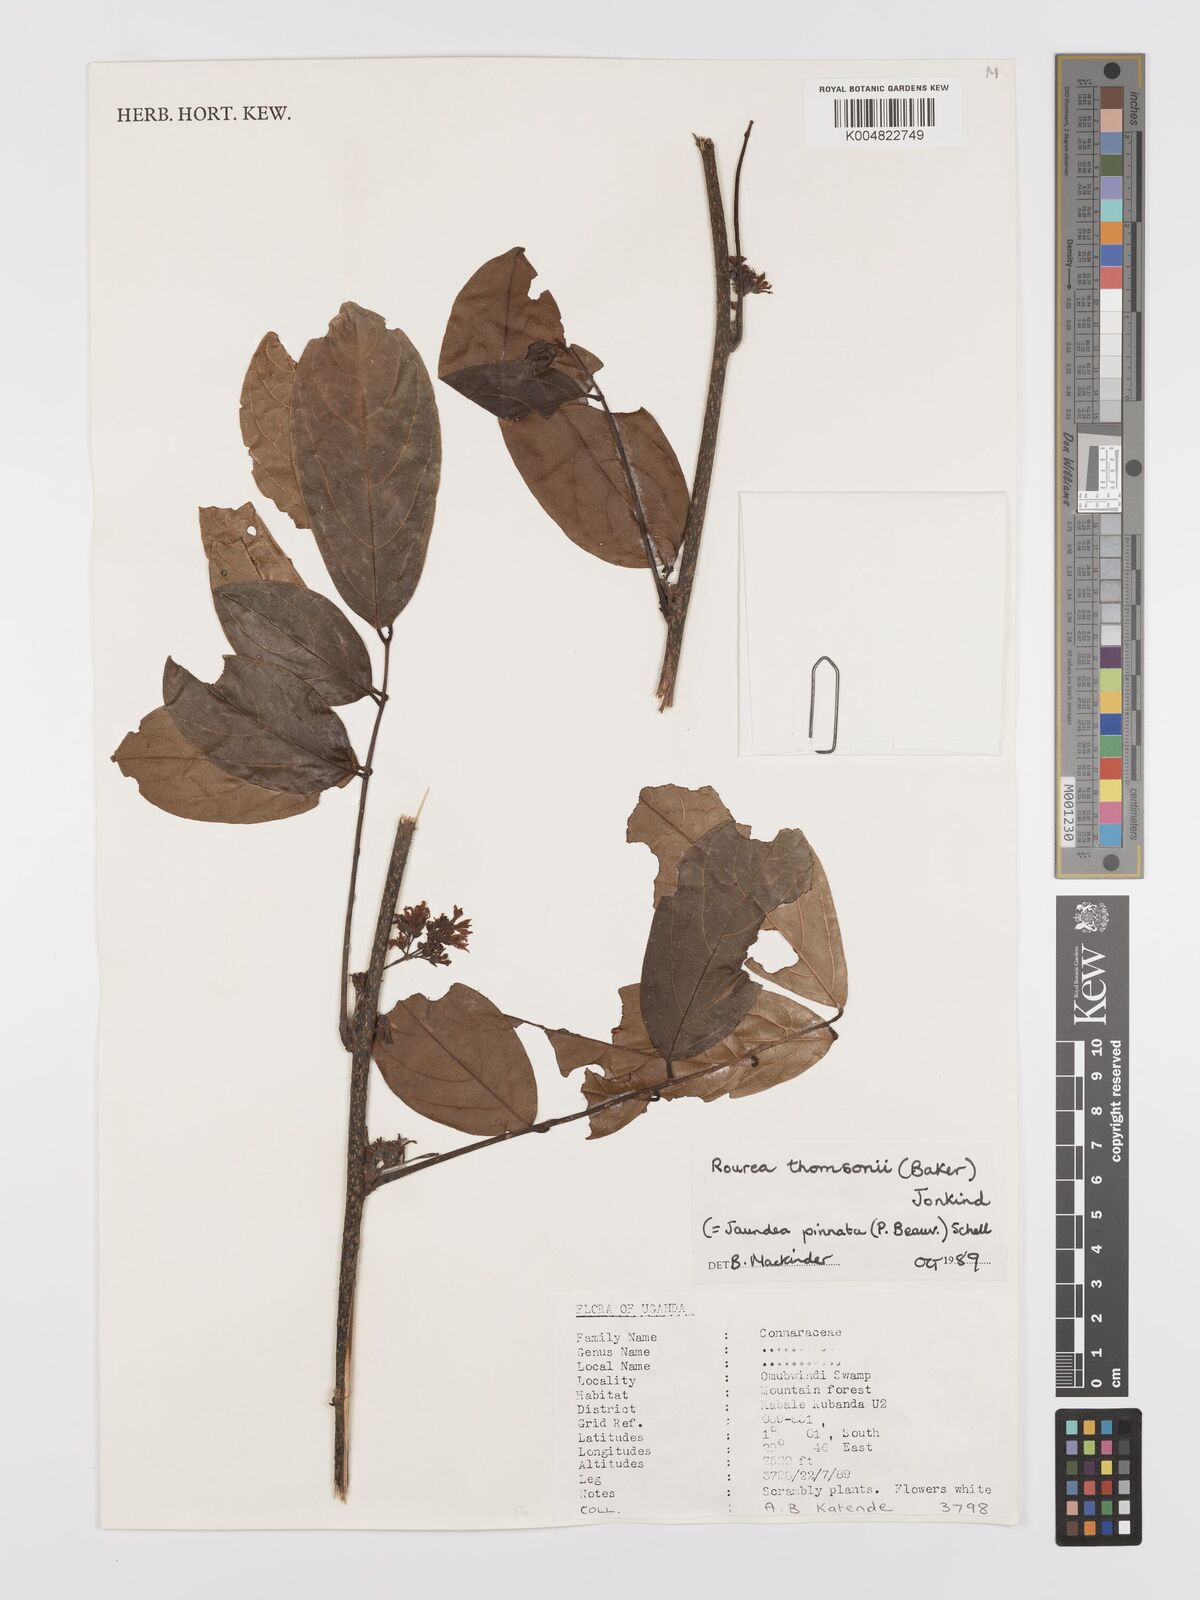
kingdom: Plantae
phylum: Tracheophyta
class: Magnoliopsida
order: Oxalidales
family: Connaraceae
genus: Rourea
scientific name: Rourea thomsonii
